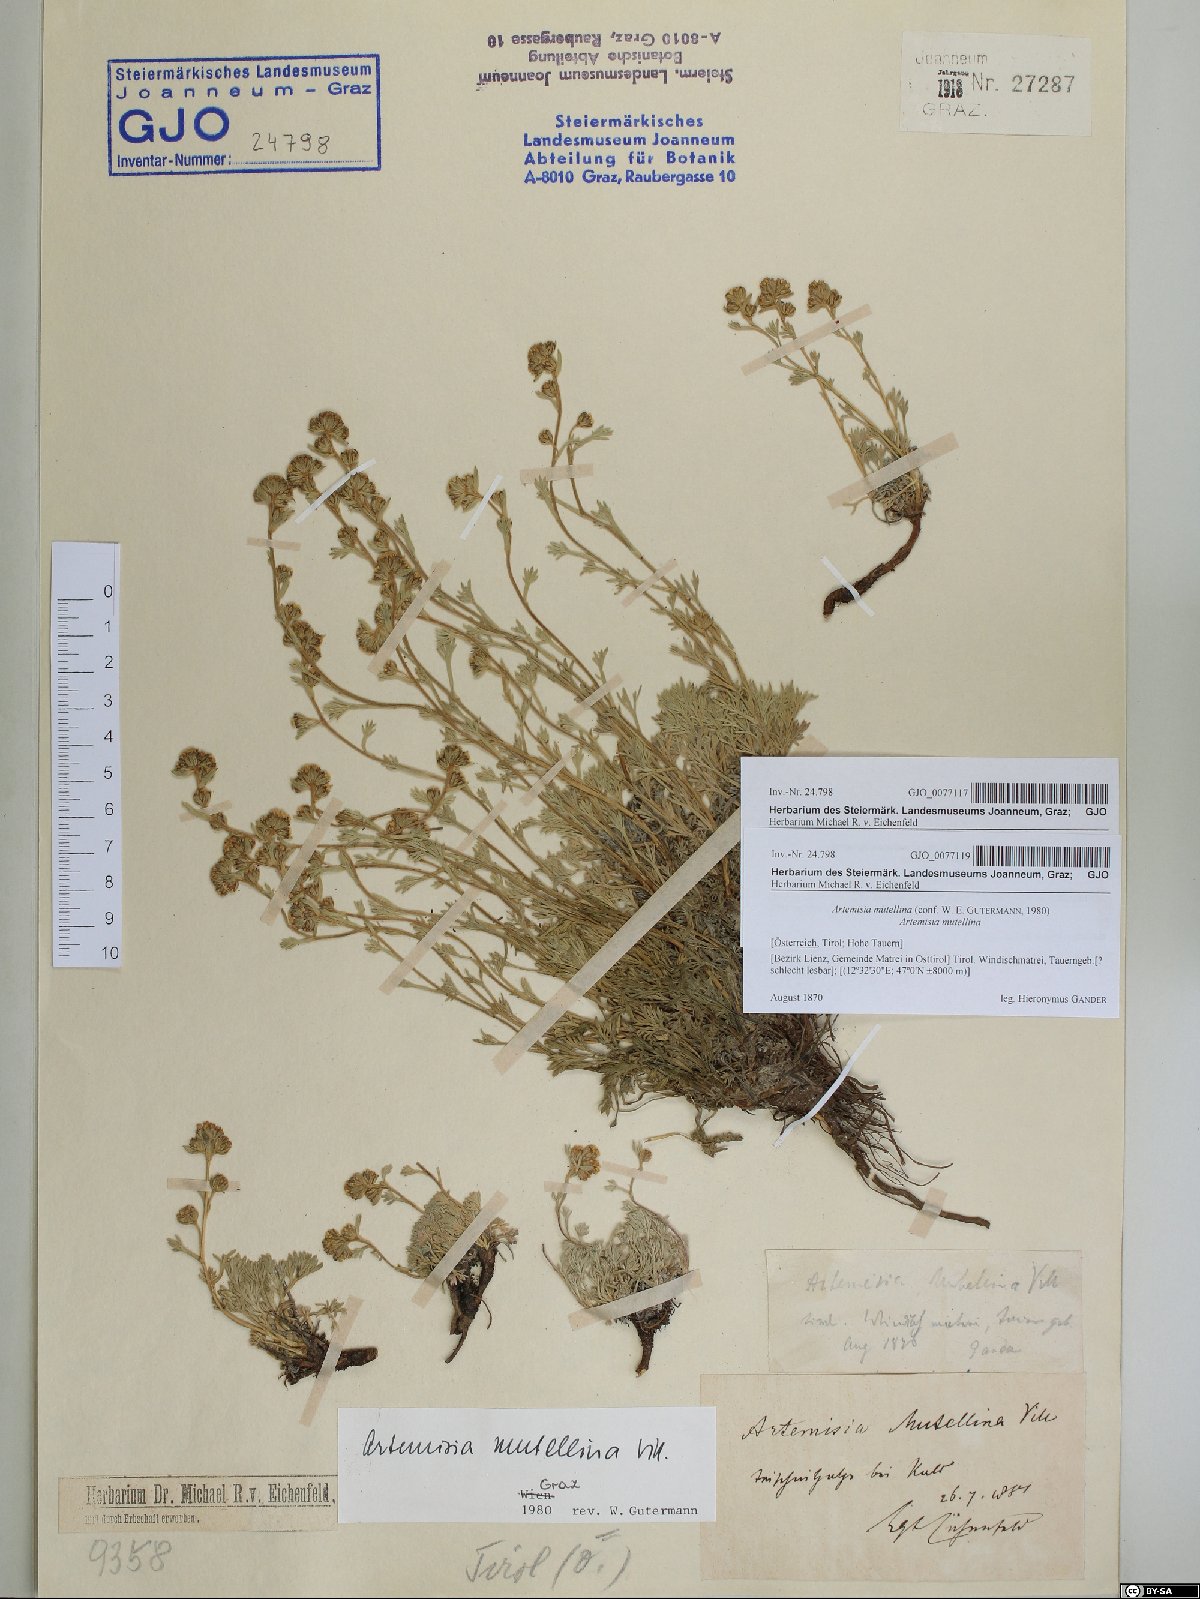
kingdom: Plantae
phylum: Tracheophyta
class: Magnoliopsida
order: Asterales
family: Asteraceae
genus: Artemisia
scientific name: Artemisia mutellina
